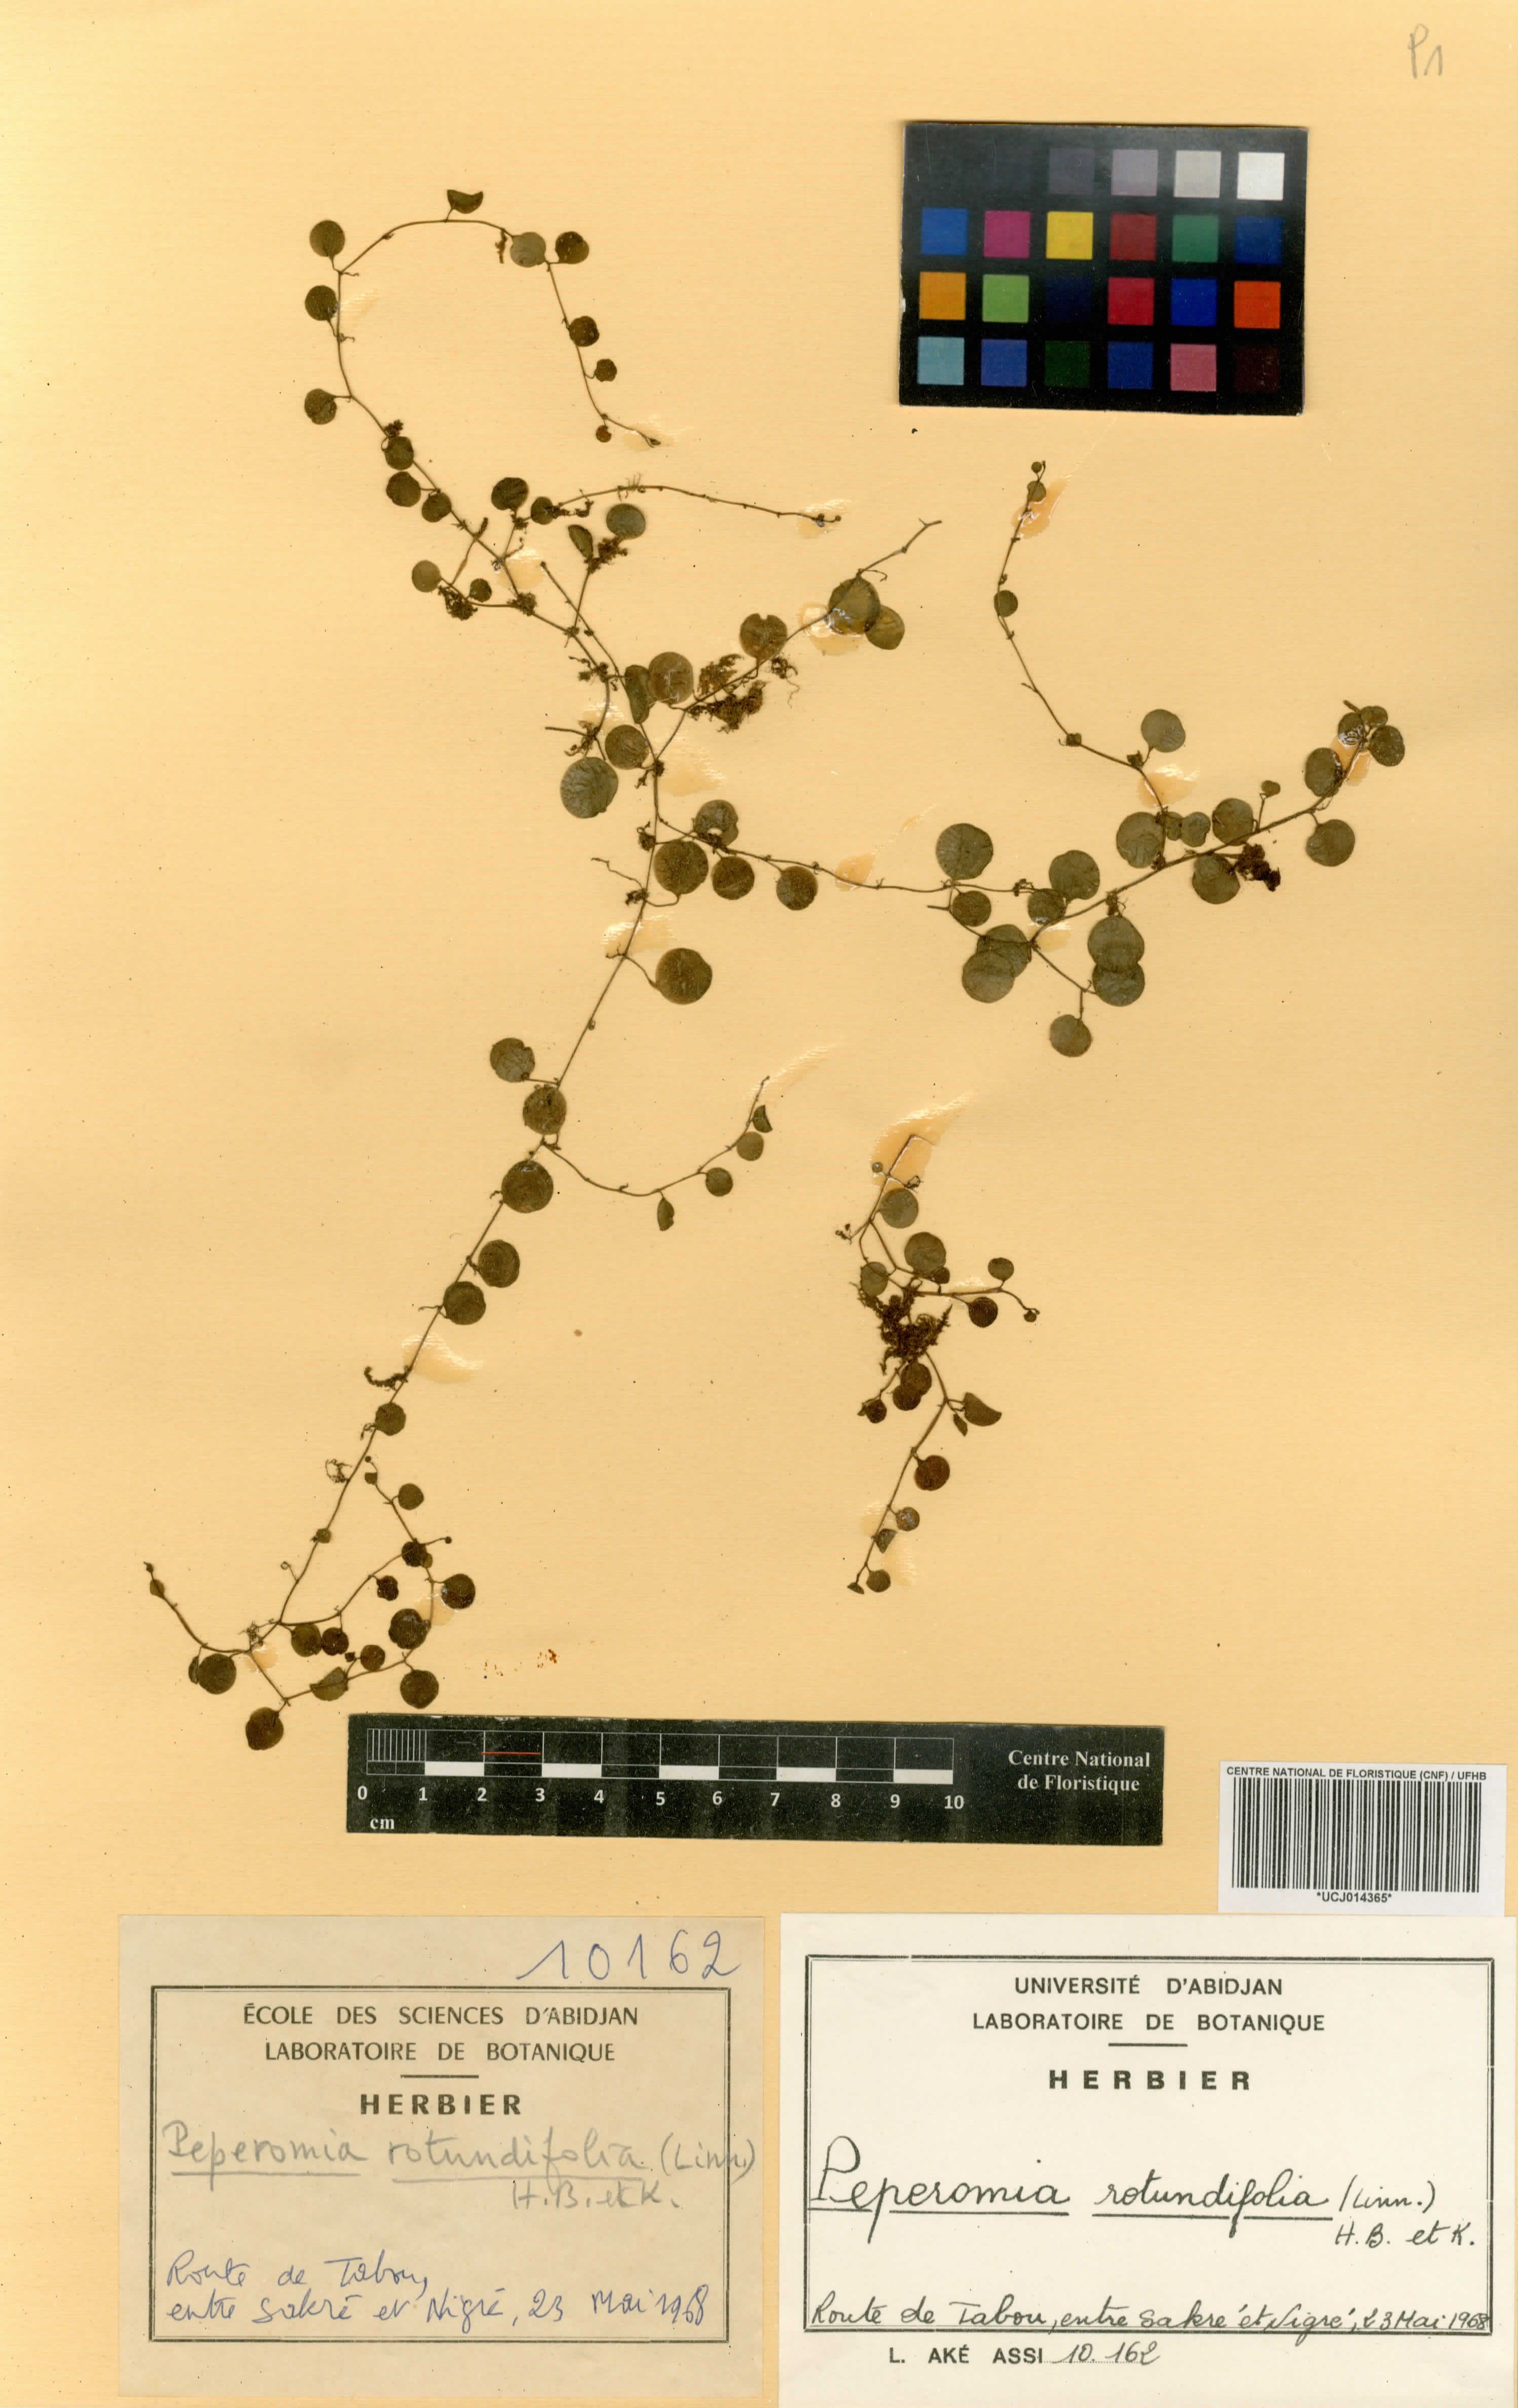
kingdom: Plantae
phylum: Tracheophyta
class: Magnoliopsida
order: Piperales
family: Piperaceae
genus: Peperomia
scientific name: Peperomia rotundifolia
